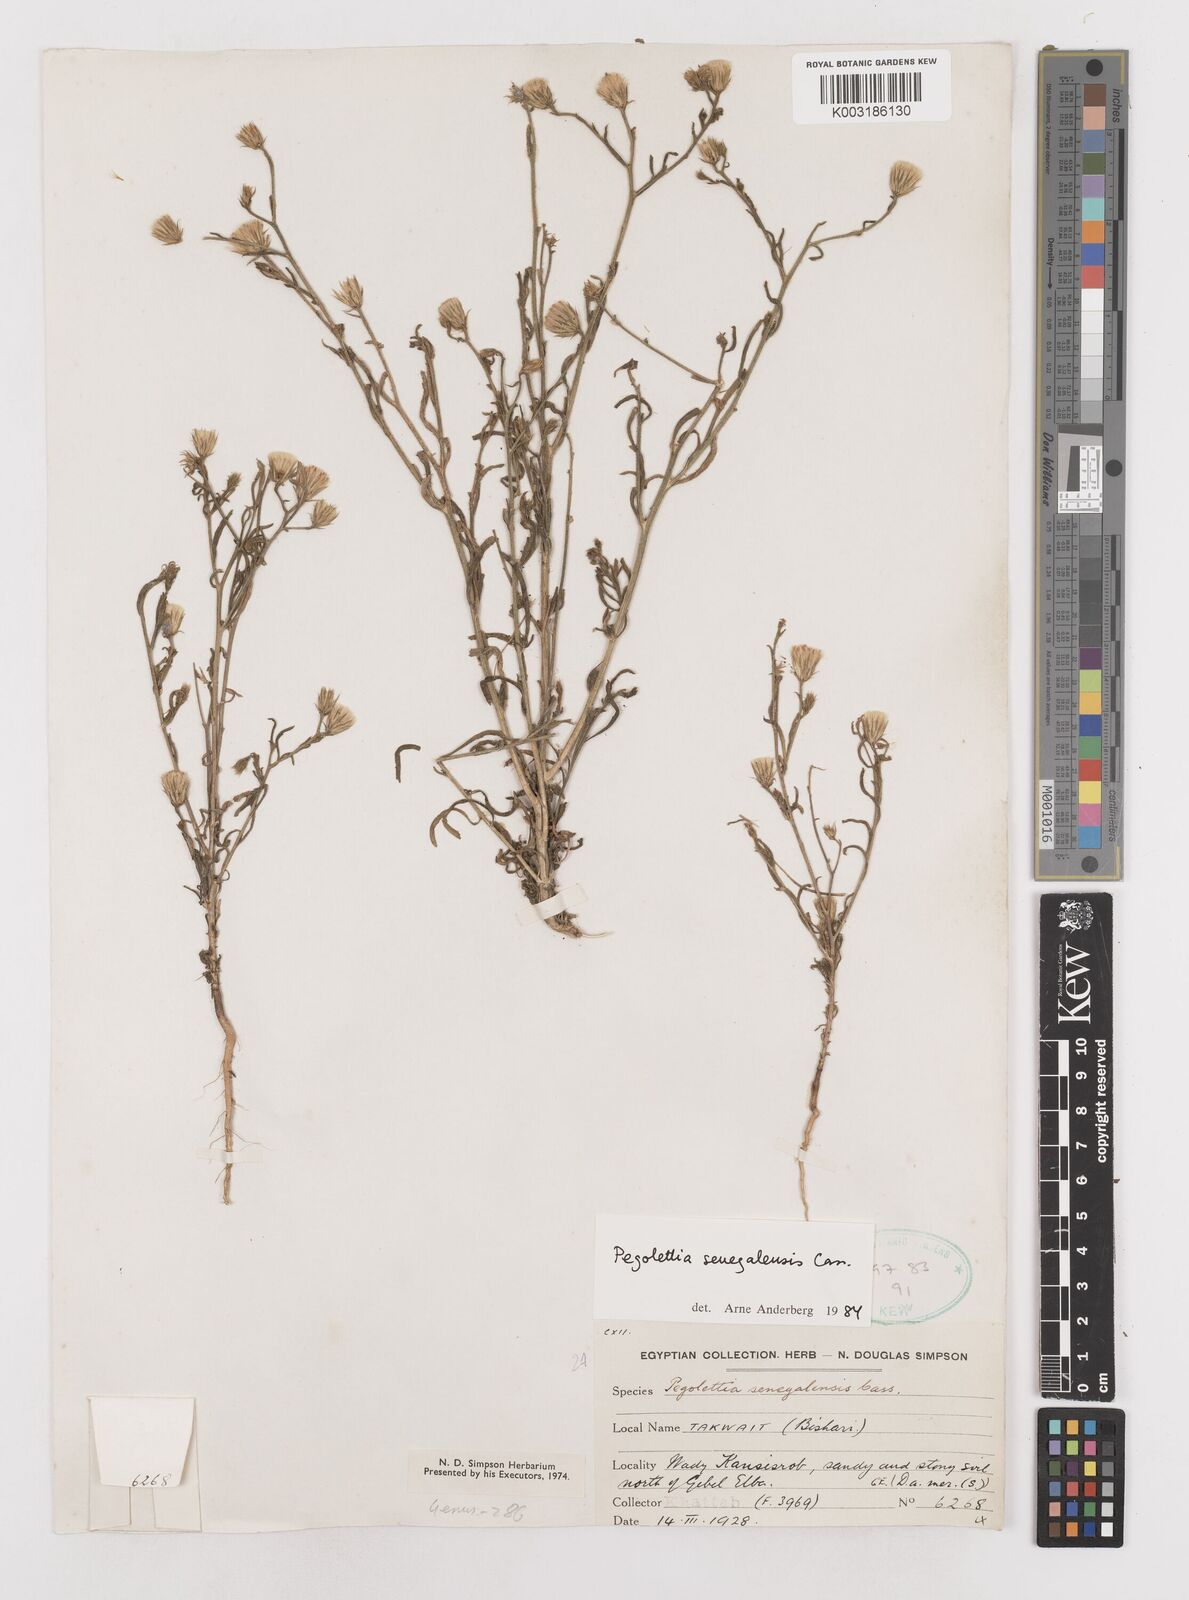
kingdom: Plantae
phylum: Tracheophyta
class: Magnoliopsida
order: Asterales
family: Asteraceae
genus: Pegolettia
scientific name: Pegolettia senegalensis
